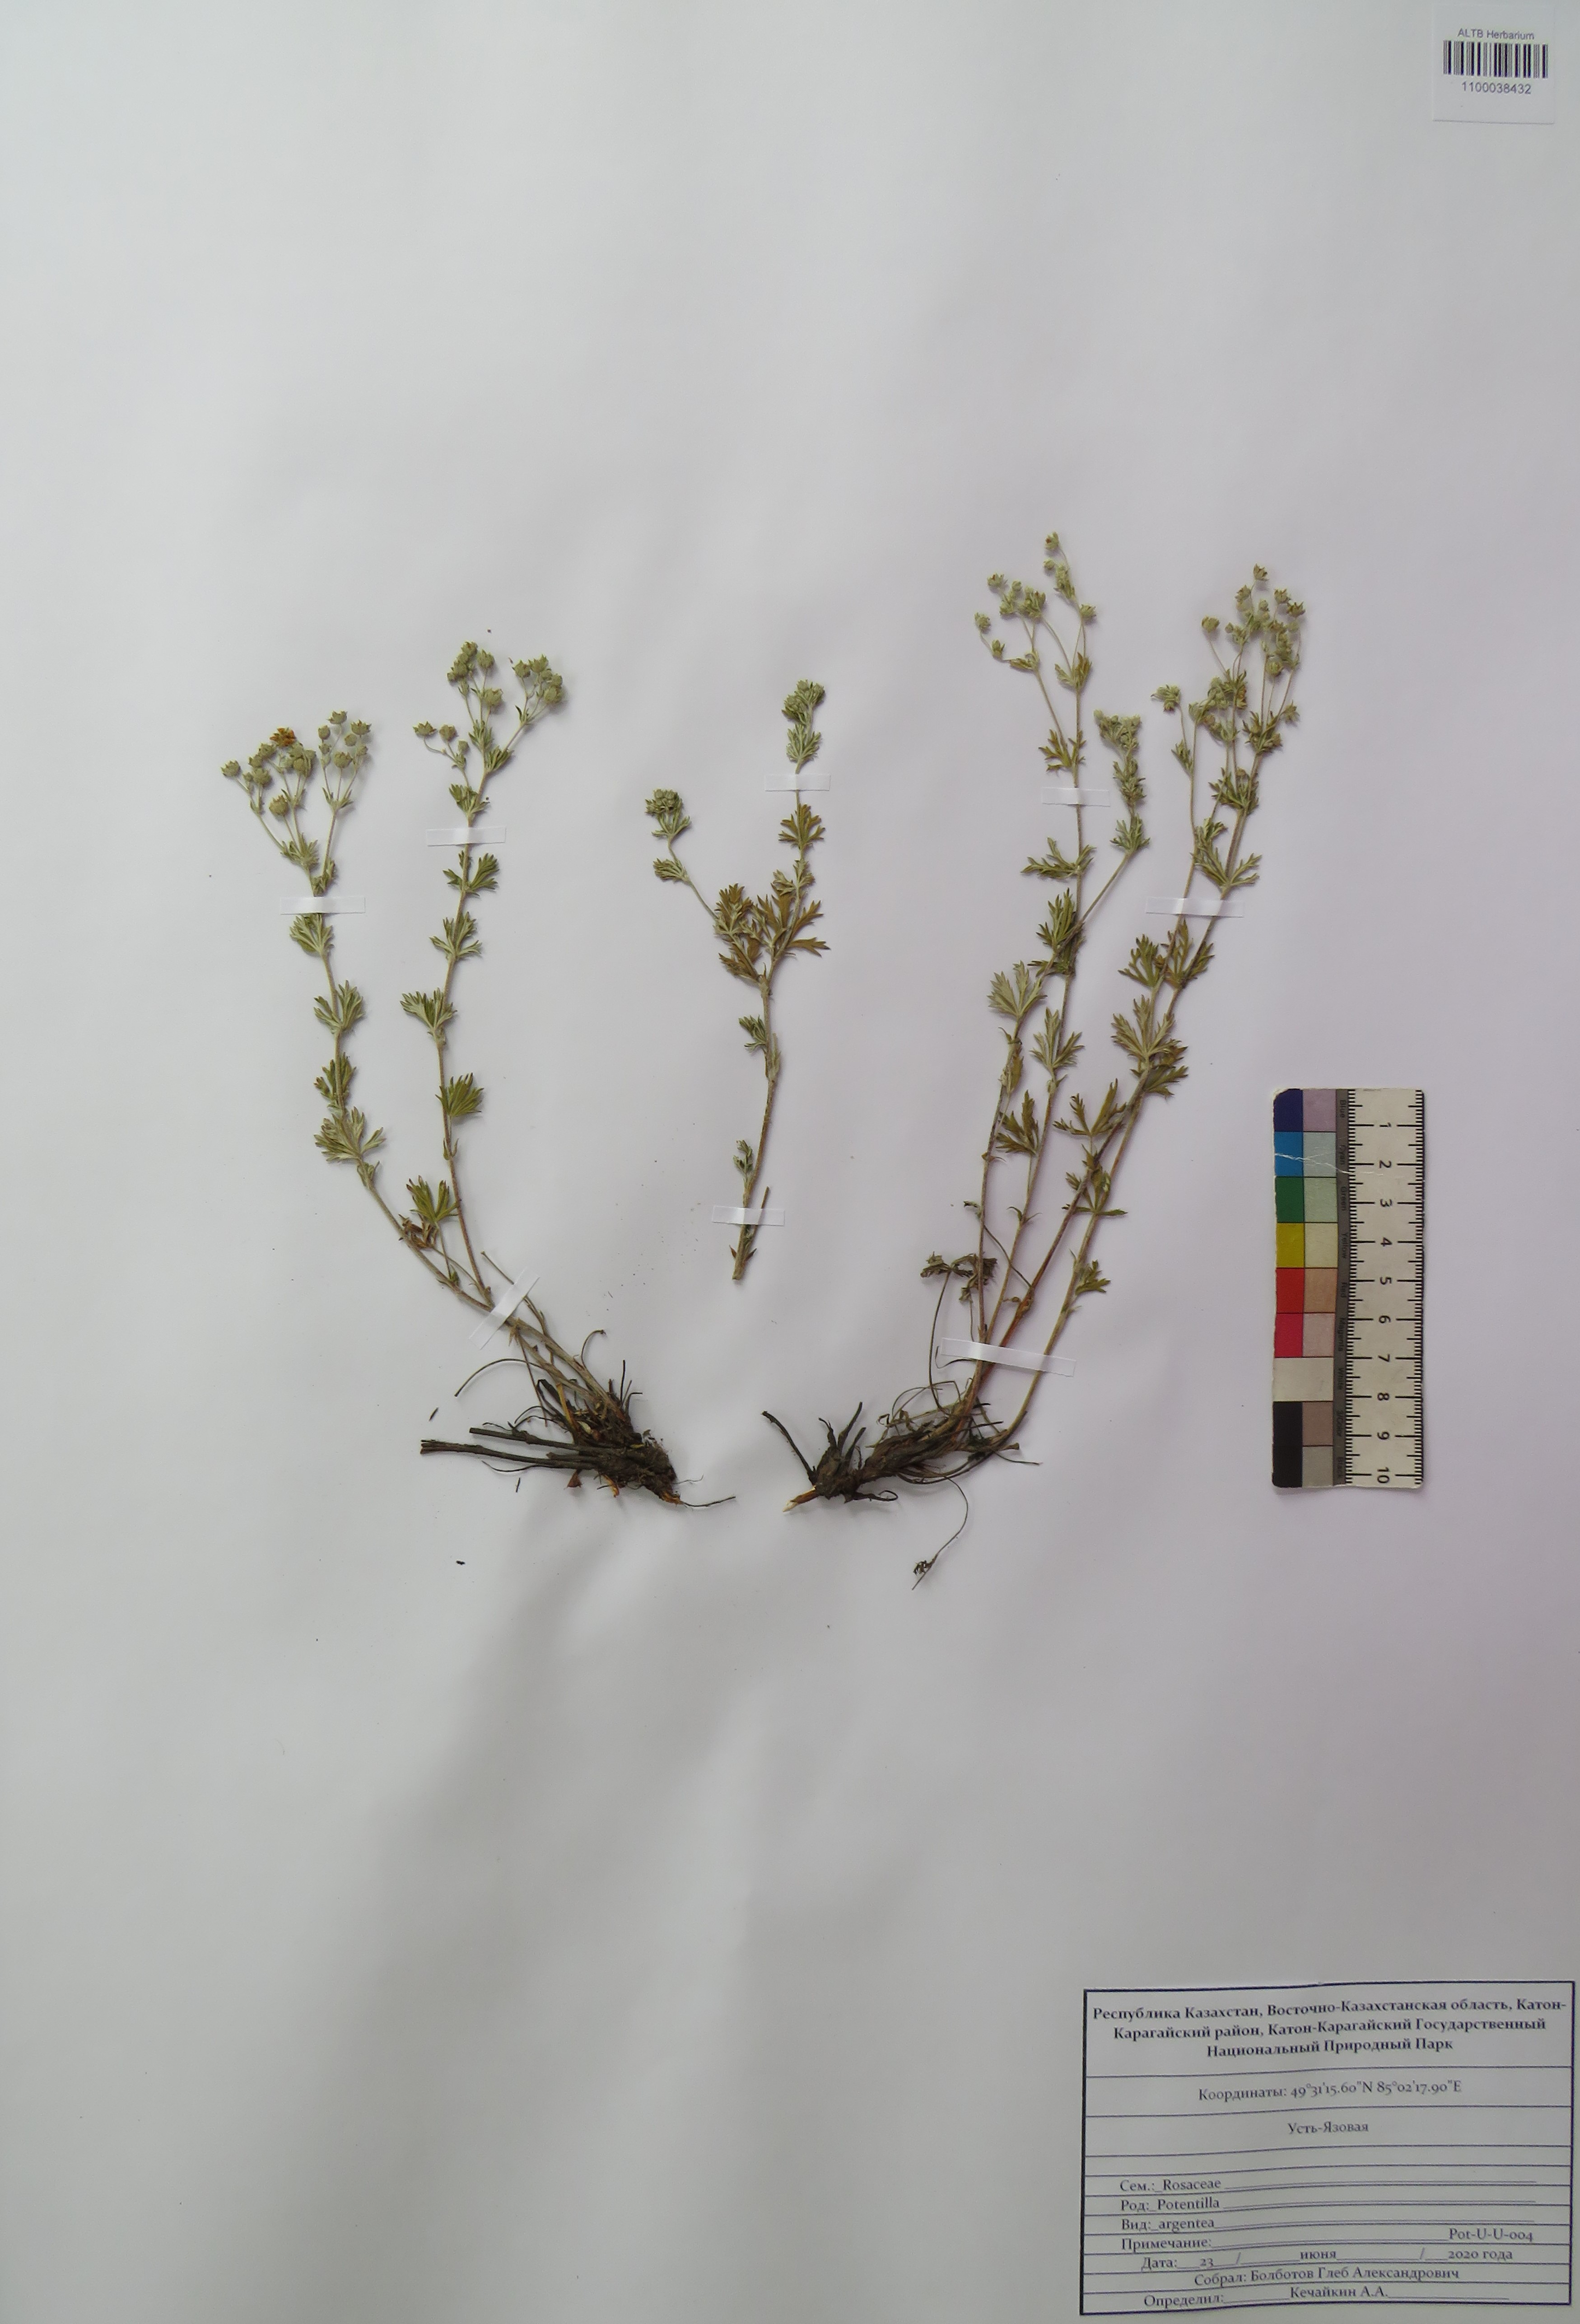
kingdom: Plantae
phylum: Tracheophyta
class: Magnoliopsida
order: Rosales
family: Rosaceae
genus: Potentilla
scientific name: Potentilla argentea
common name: Hoary cinquefoil
